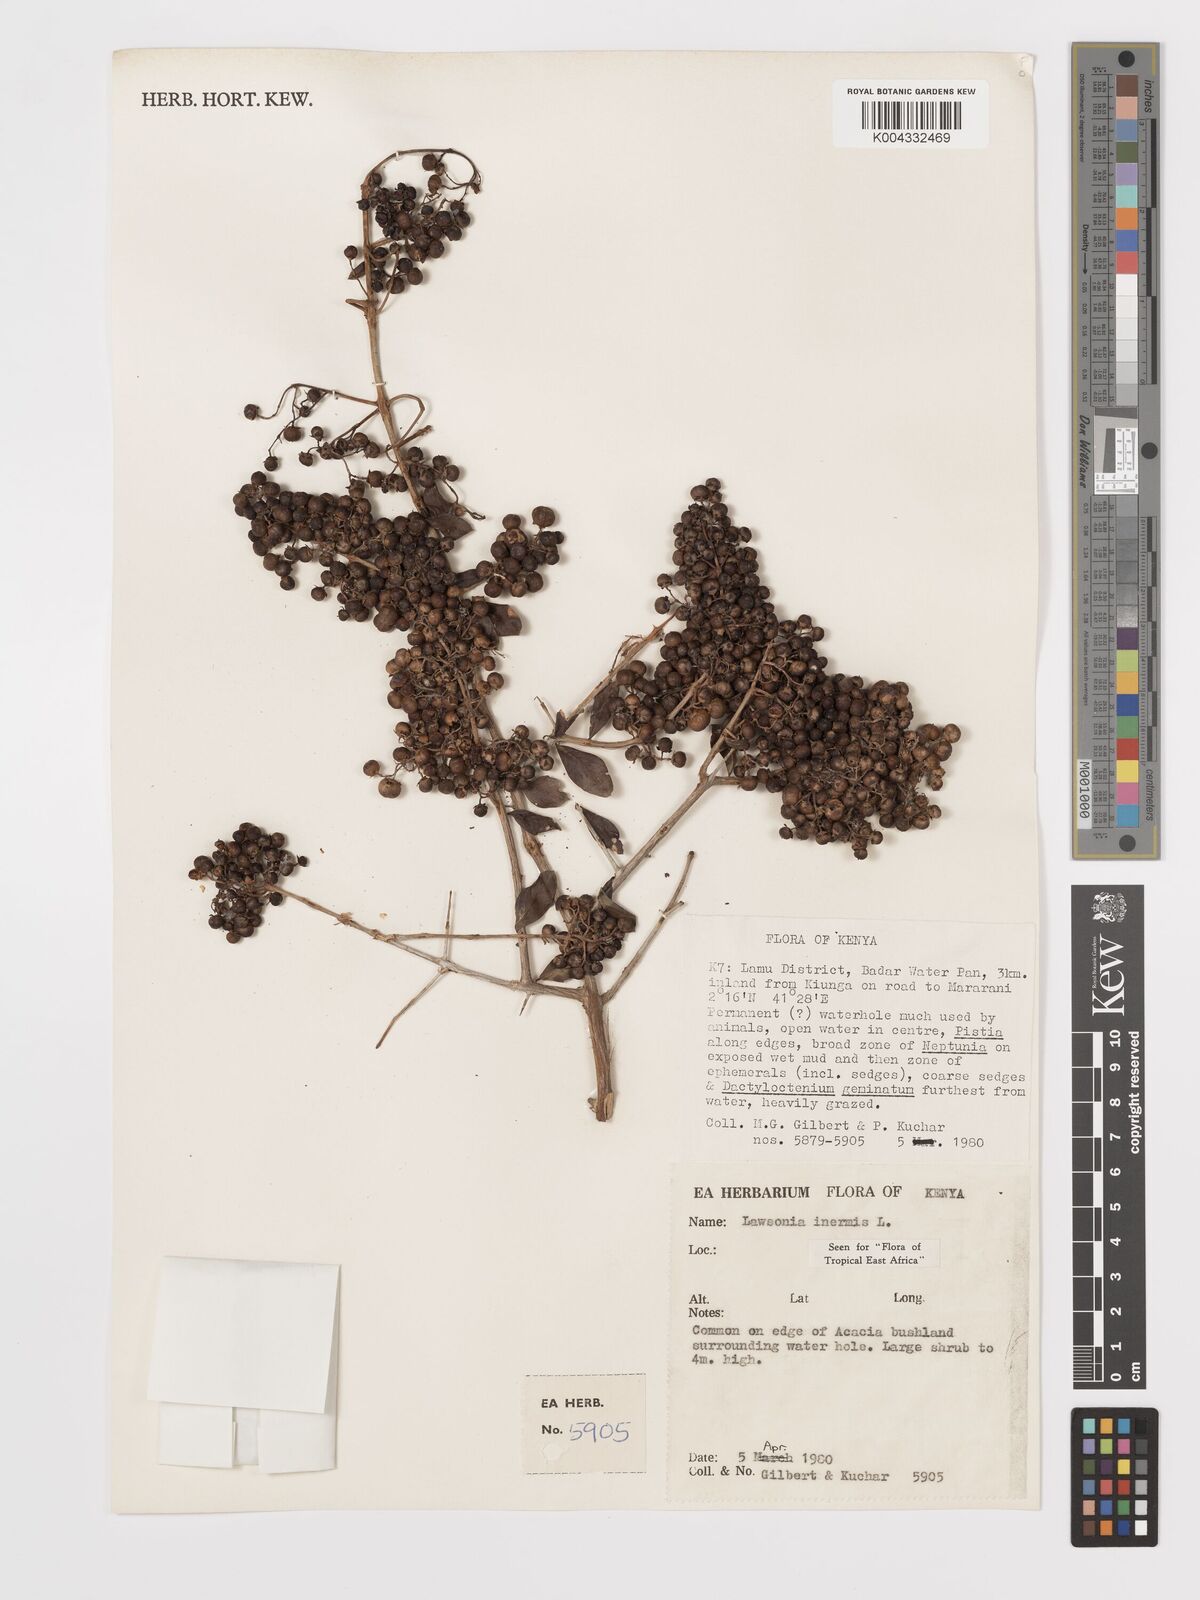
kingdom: Plantae
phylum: Tracheophyta
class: Magnoliopsida
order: Myrtales
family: Lythraceae
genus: Lawsonia
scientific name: Lawsonia inermis
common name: Henna
